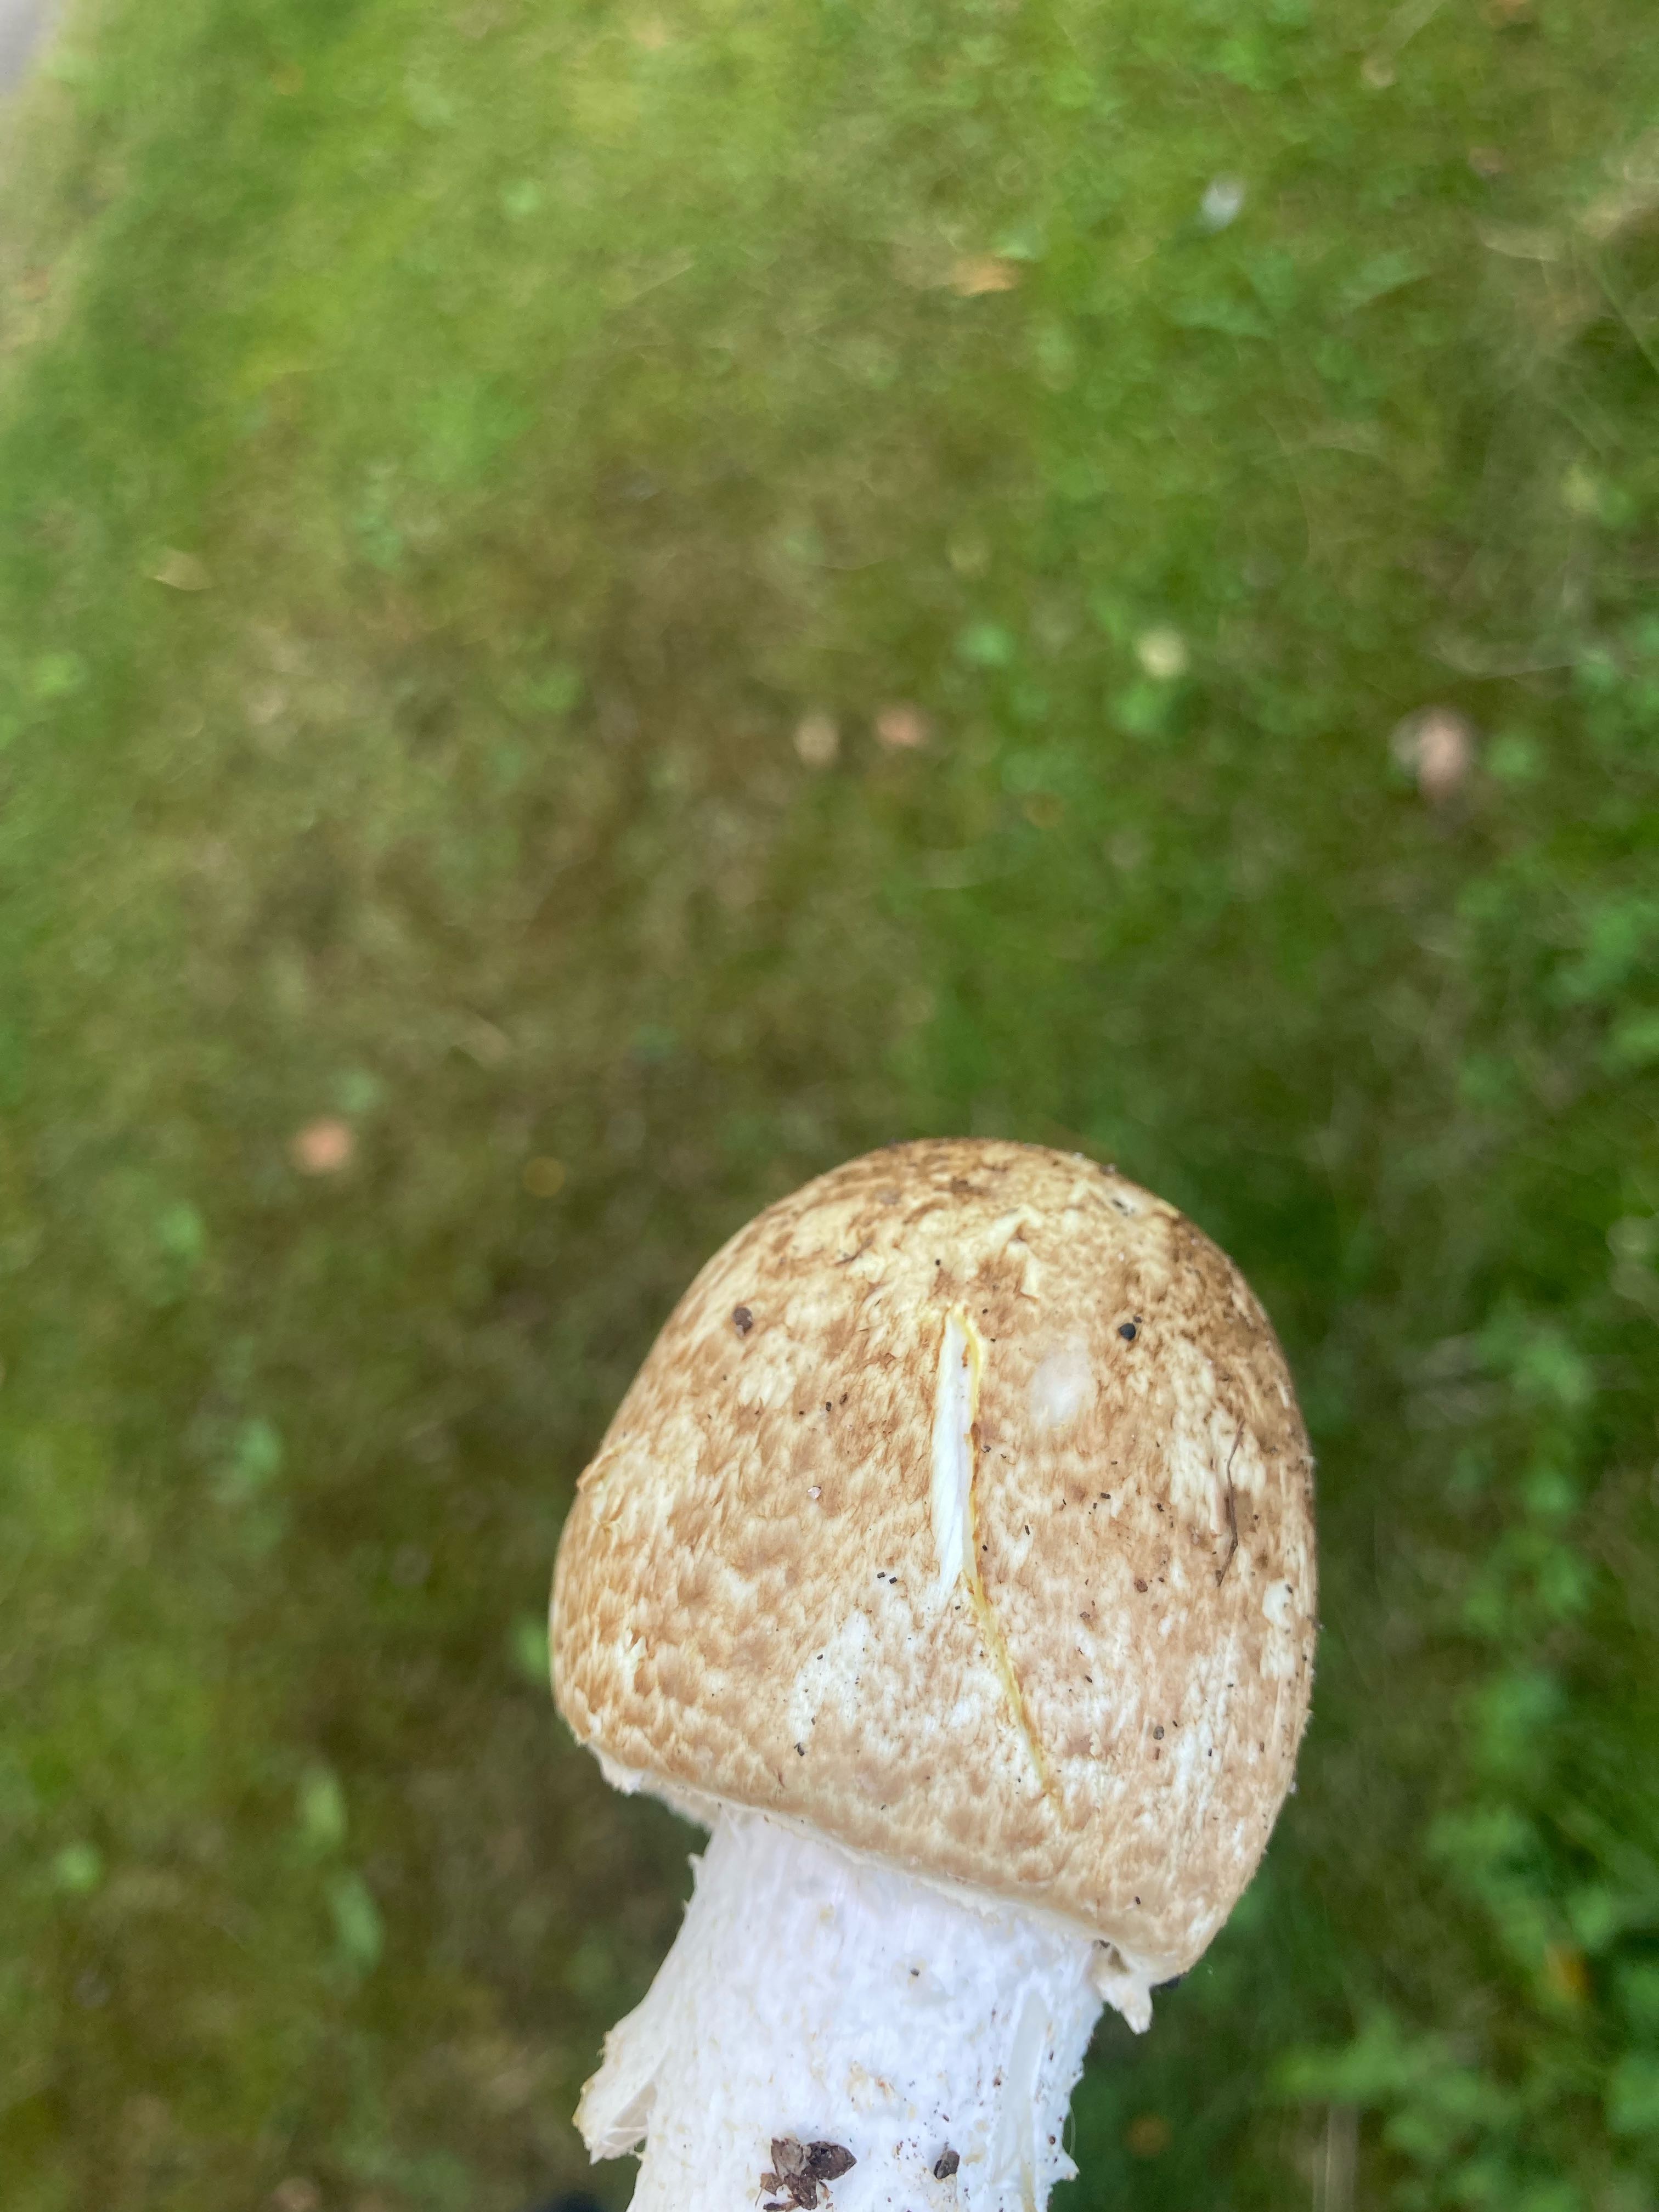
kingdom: Fungi
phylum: Basidiomycota
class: Agaricomycetes
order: Agaricales
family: Agaricaceae
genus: Agaricus
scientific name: Agaricus augustus
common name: prægtig champignon
